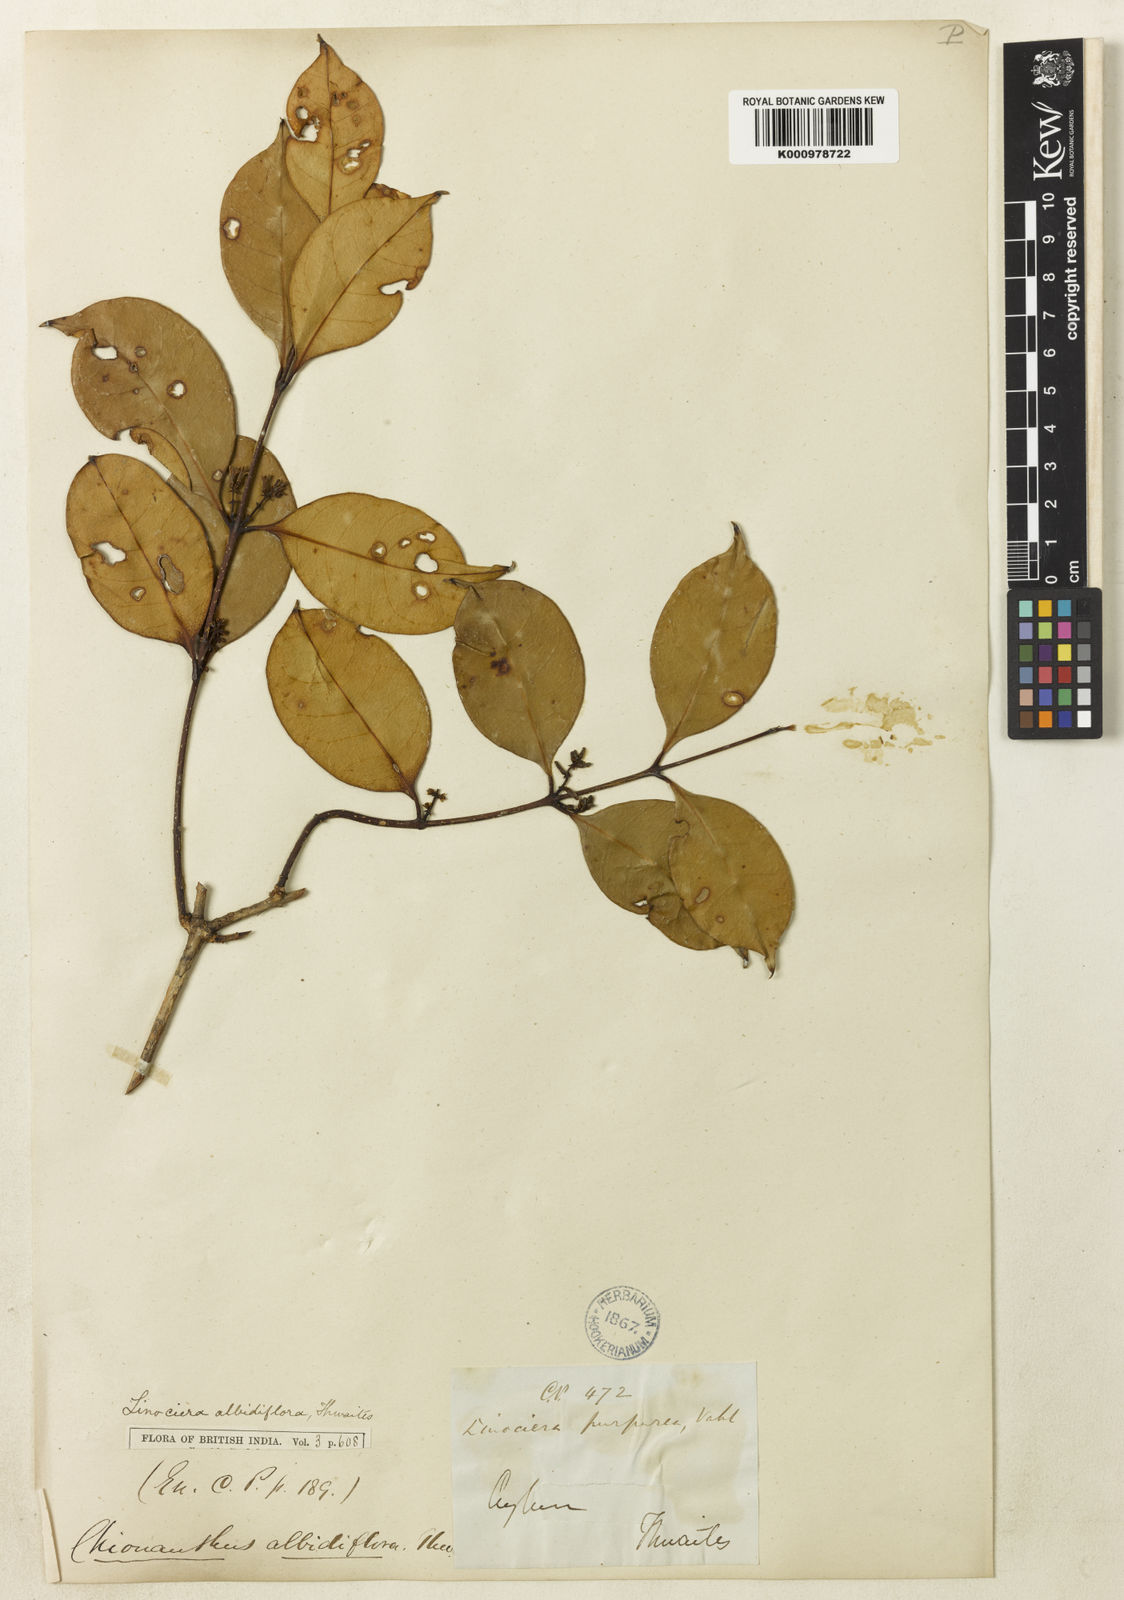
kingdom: Plantae
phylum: Tracheophyta
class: Magnoliopsida
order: Lamiales
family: Oleaceae
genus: Chionanthus
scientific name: Chionanthus albidiflorus
